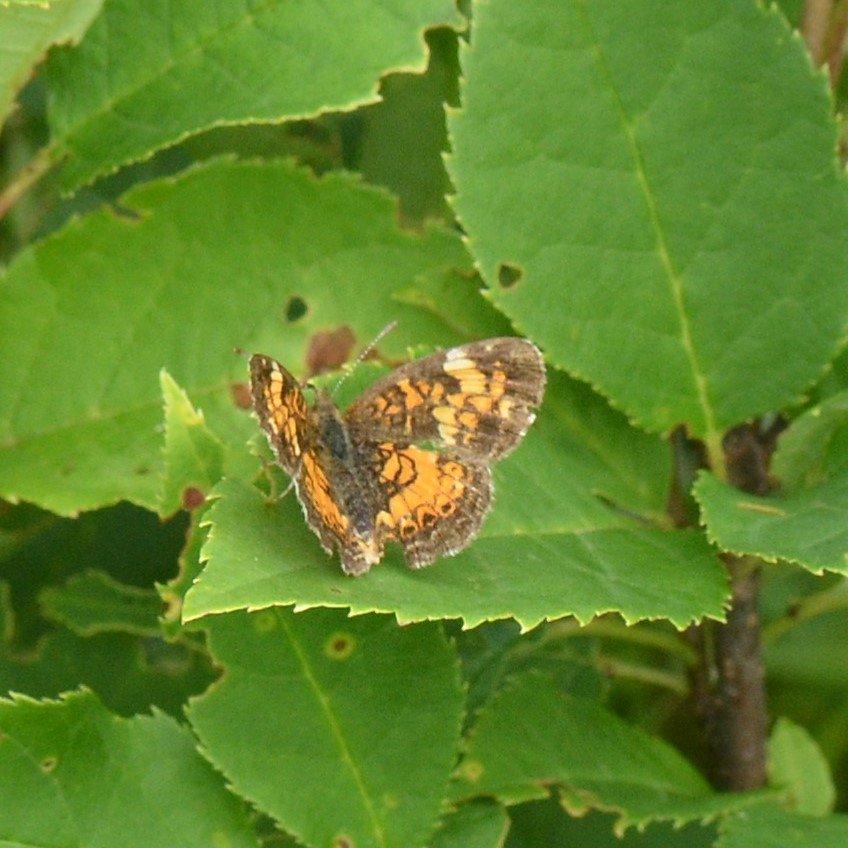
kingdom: Animalia
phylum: Arthropoda
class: Insecta
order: Lepidoptera
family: Nymphalidae
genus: Phyciodes
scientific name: Phyciodes tharos
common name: Northern Crescent
